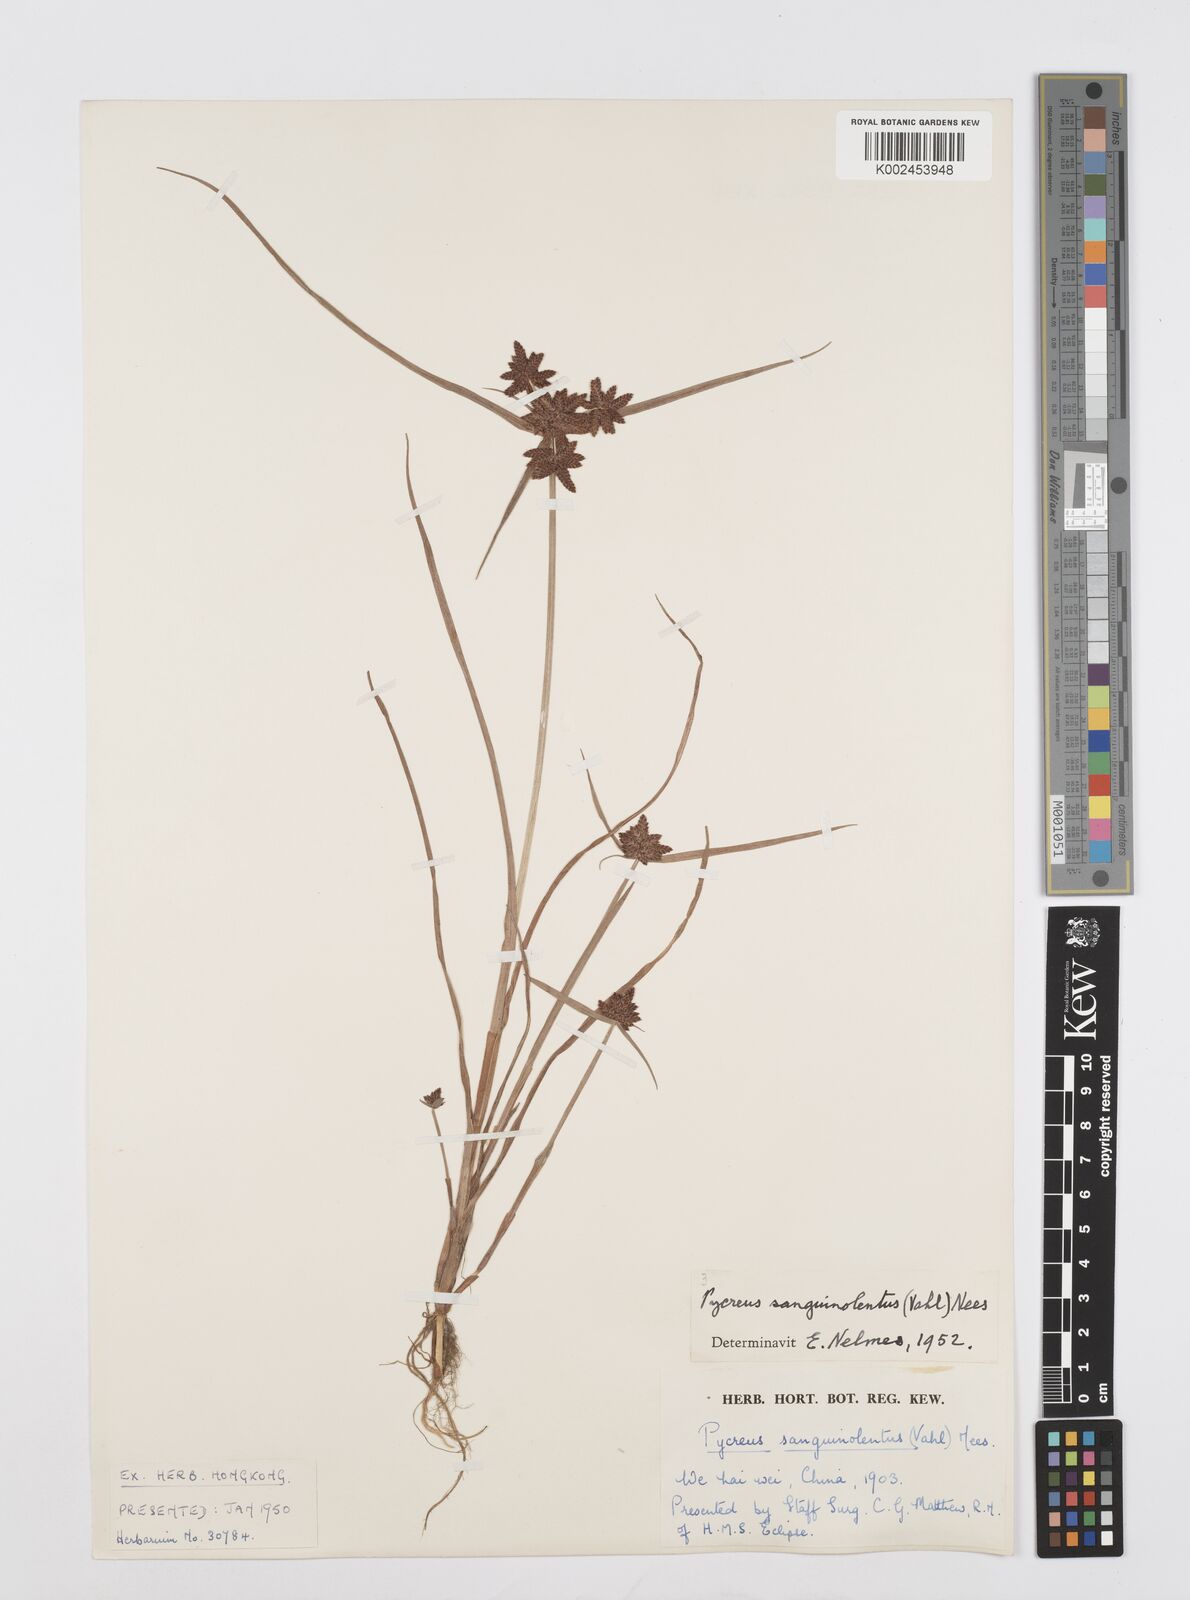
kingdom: Plantae
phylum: Tracheophyta
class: Liliopsida
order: Poales
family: Cyperaceae
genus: Cyperus
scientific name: Cyperus sanguinolentus
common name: Purpleglume flatsedge
